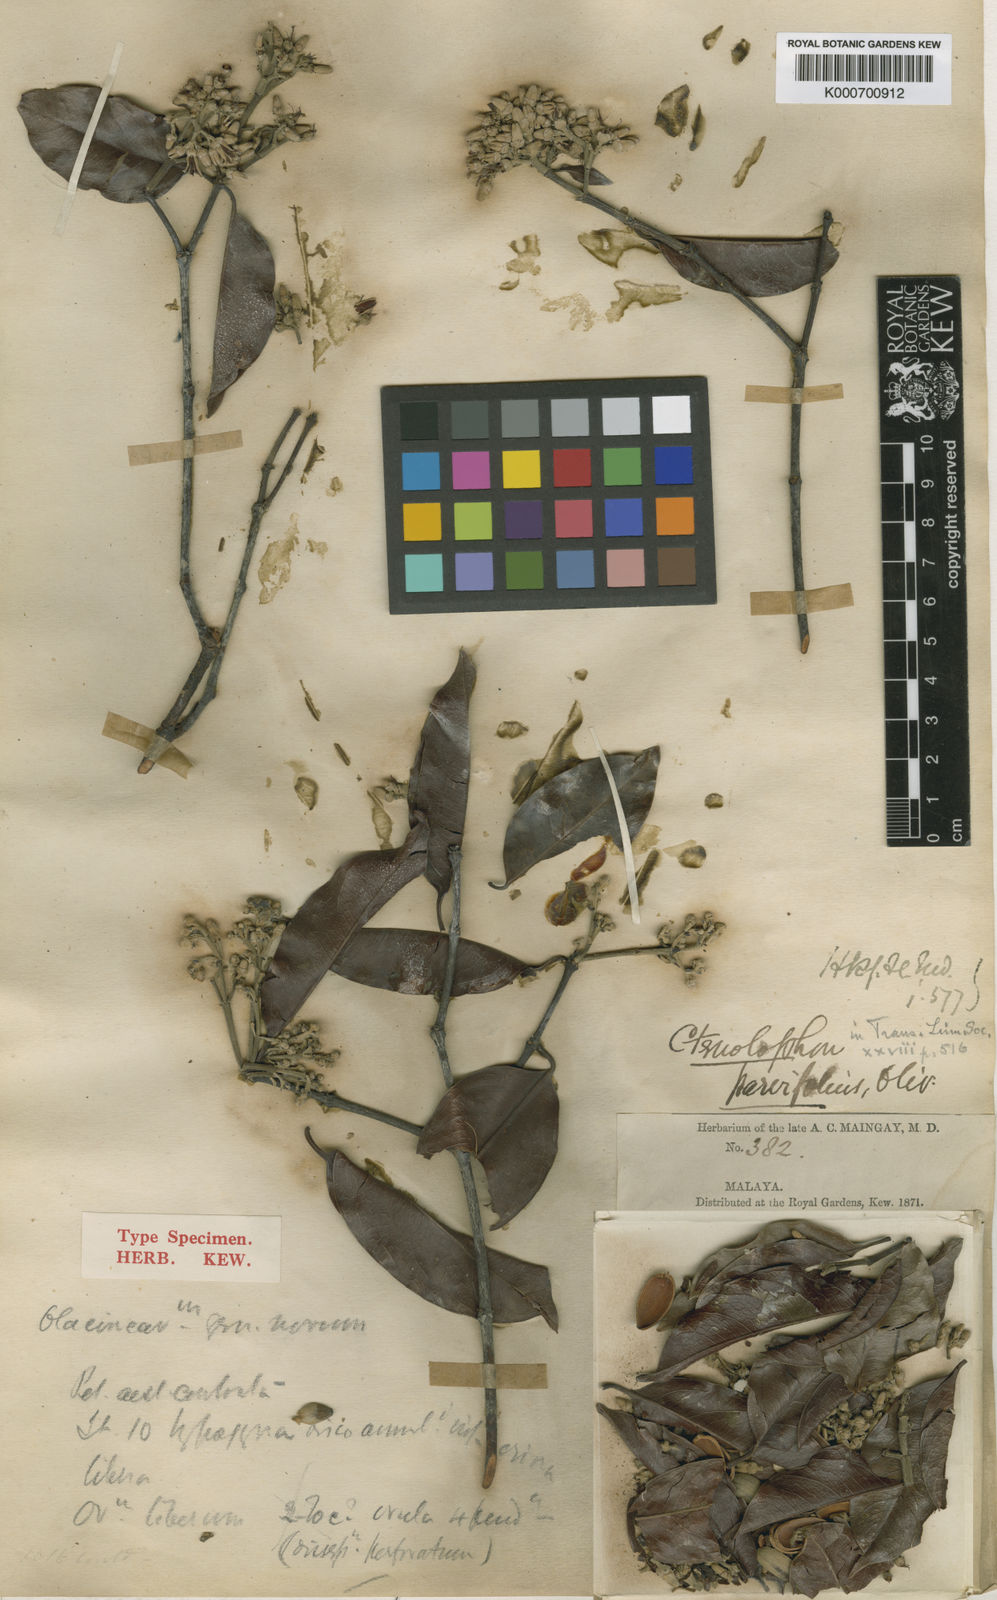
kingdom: Plantae
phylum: Tracheophyta
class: Magnoliopsida
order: Malpighiales
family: Ctenolophonaceae
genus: Ctenolophon
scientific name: Ctenolophon parvifolius
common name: Mertas
